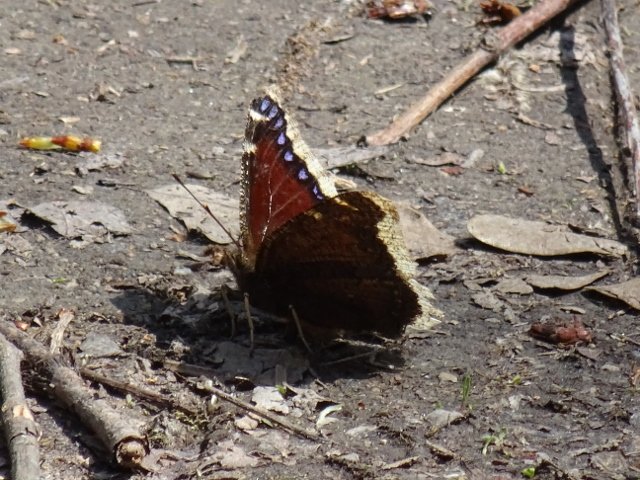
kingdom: Animalia
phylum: Arthropoda
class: Insecta
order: Lepidoptera
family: Nymphalidae
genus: Nymphalis
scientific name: Nymphalis antiopa
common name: Mourning Cloak
